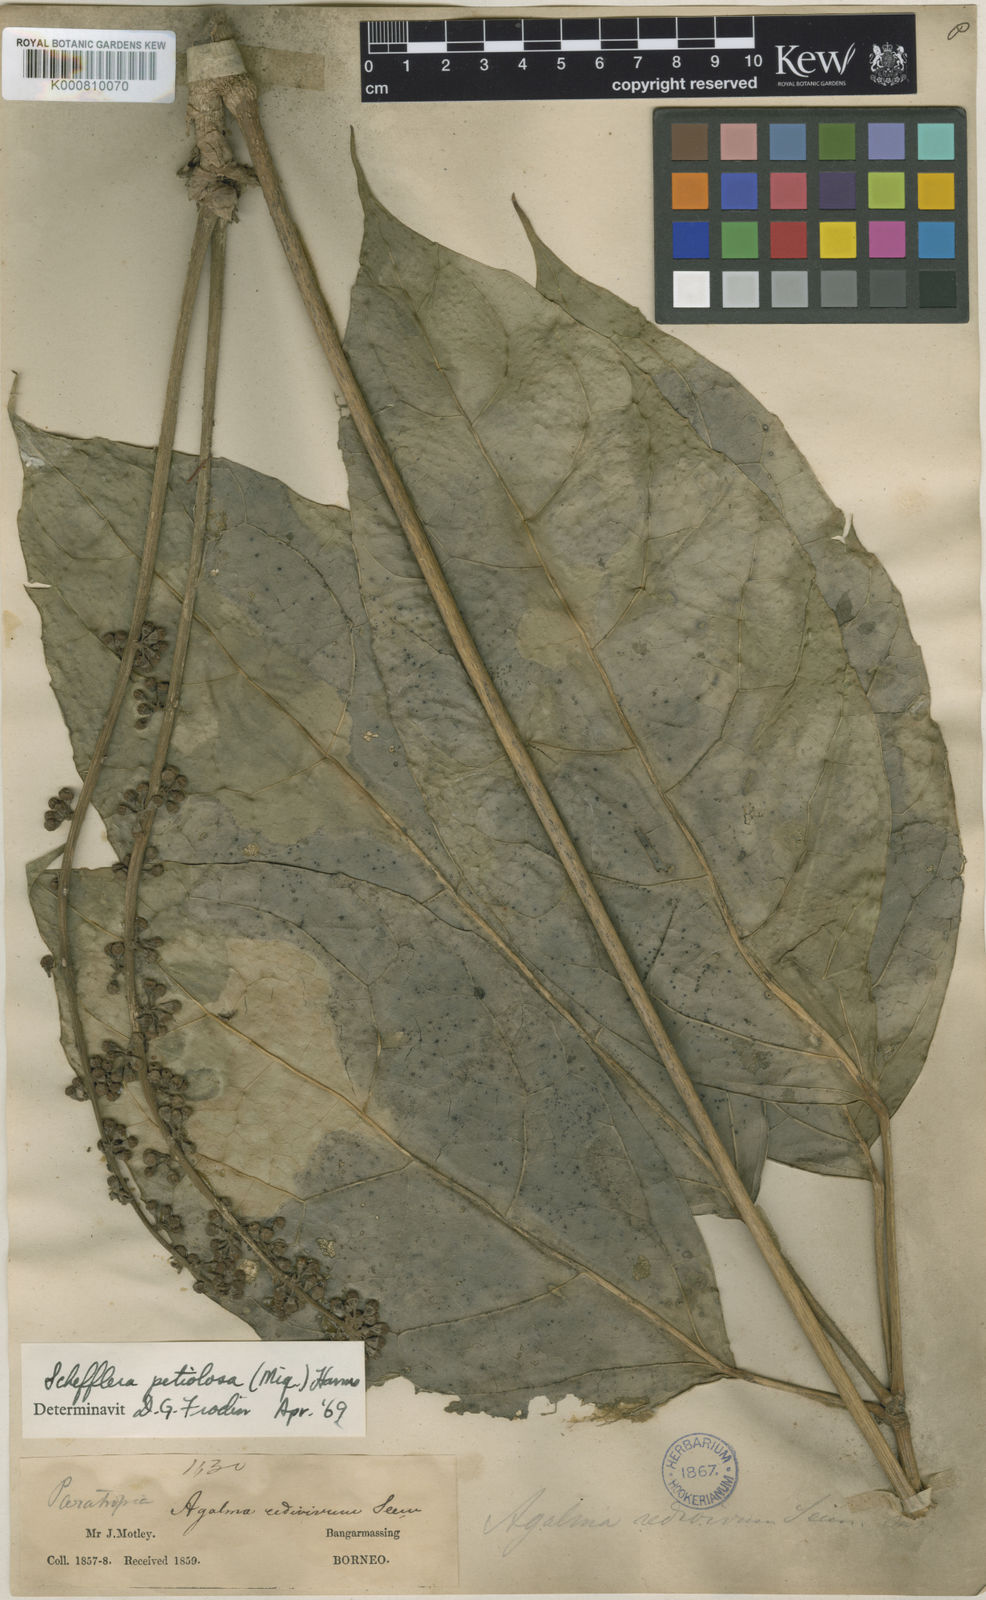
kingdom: Plantae
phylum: Tracheophyta
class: Magnoliopsida
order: Apiales
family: Araliaceae
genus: Heptapleurum
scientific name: Heptapleurum petiolosum
